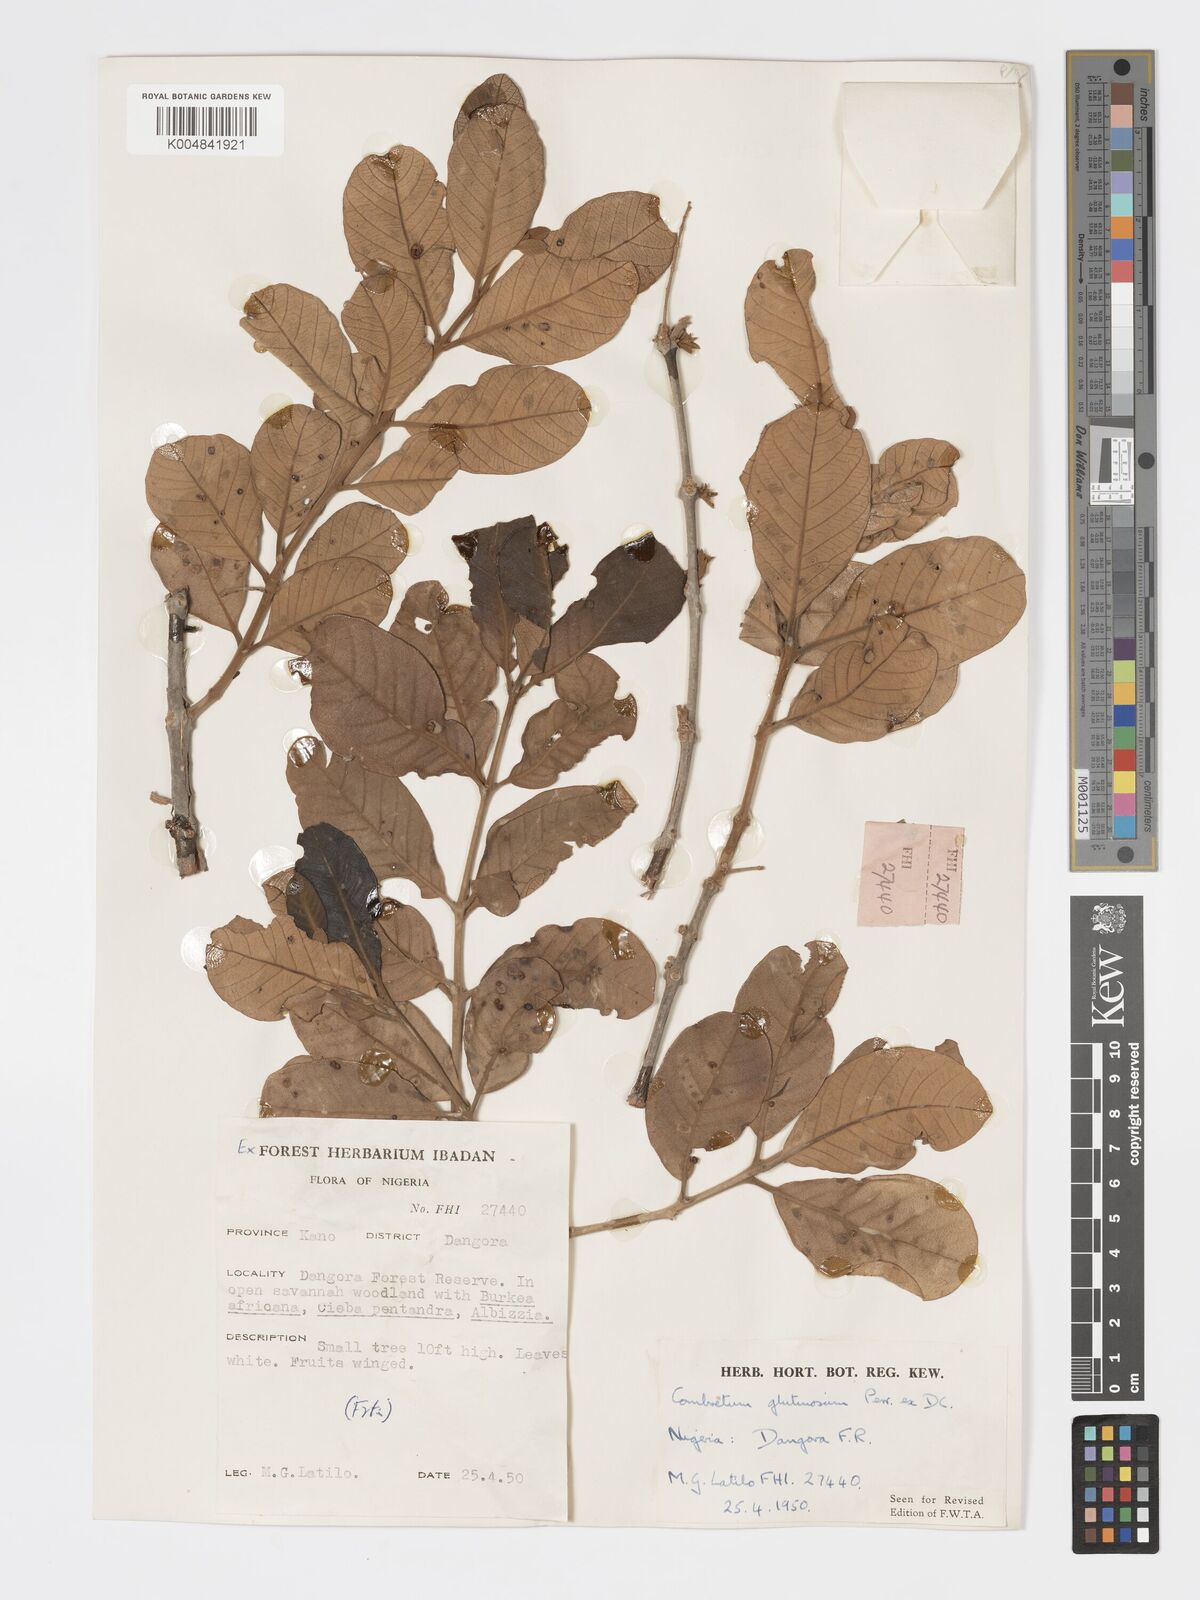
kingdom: Plantae
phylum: Tracheophyta
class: Magnoliopsida
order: Myrtales
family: Combretaceae
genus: Combretum
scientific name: Combretum
